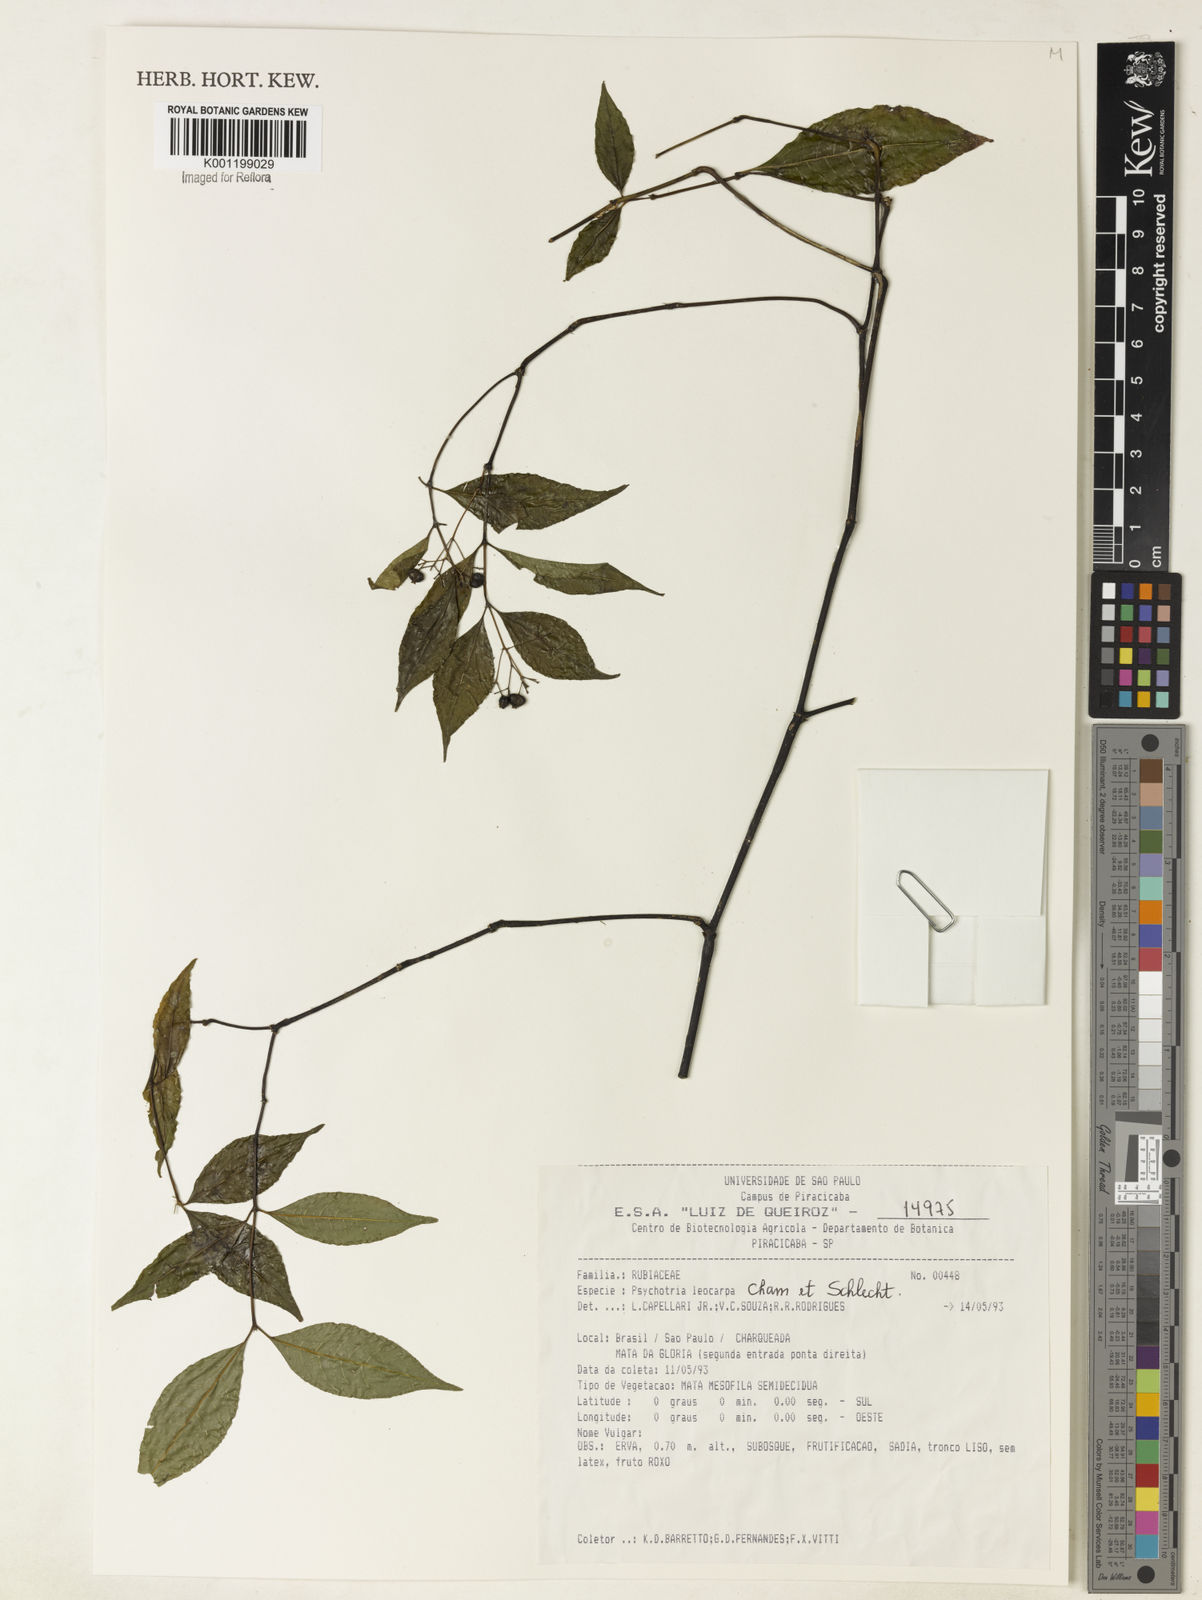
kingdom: Plantae
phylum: Tracheophyta
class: Magnoliopsida
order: Gentianales
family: Rubiaceae
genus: Psychotria
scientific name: Psychotria leiocarpa
